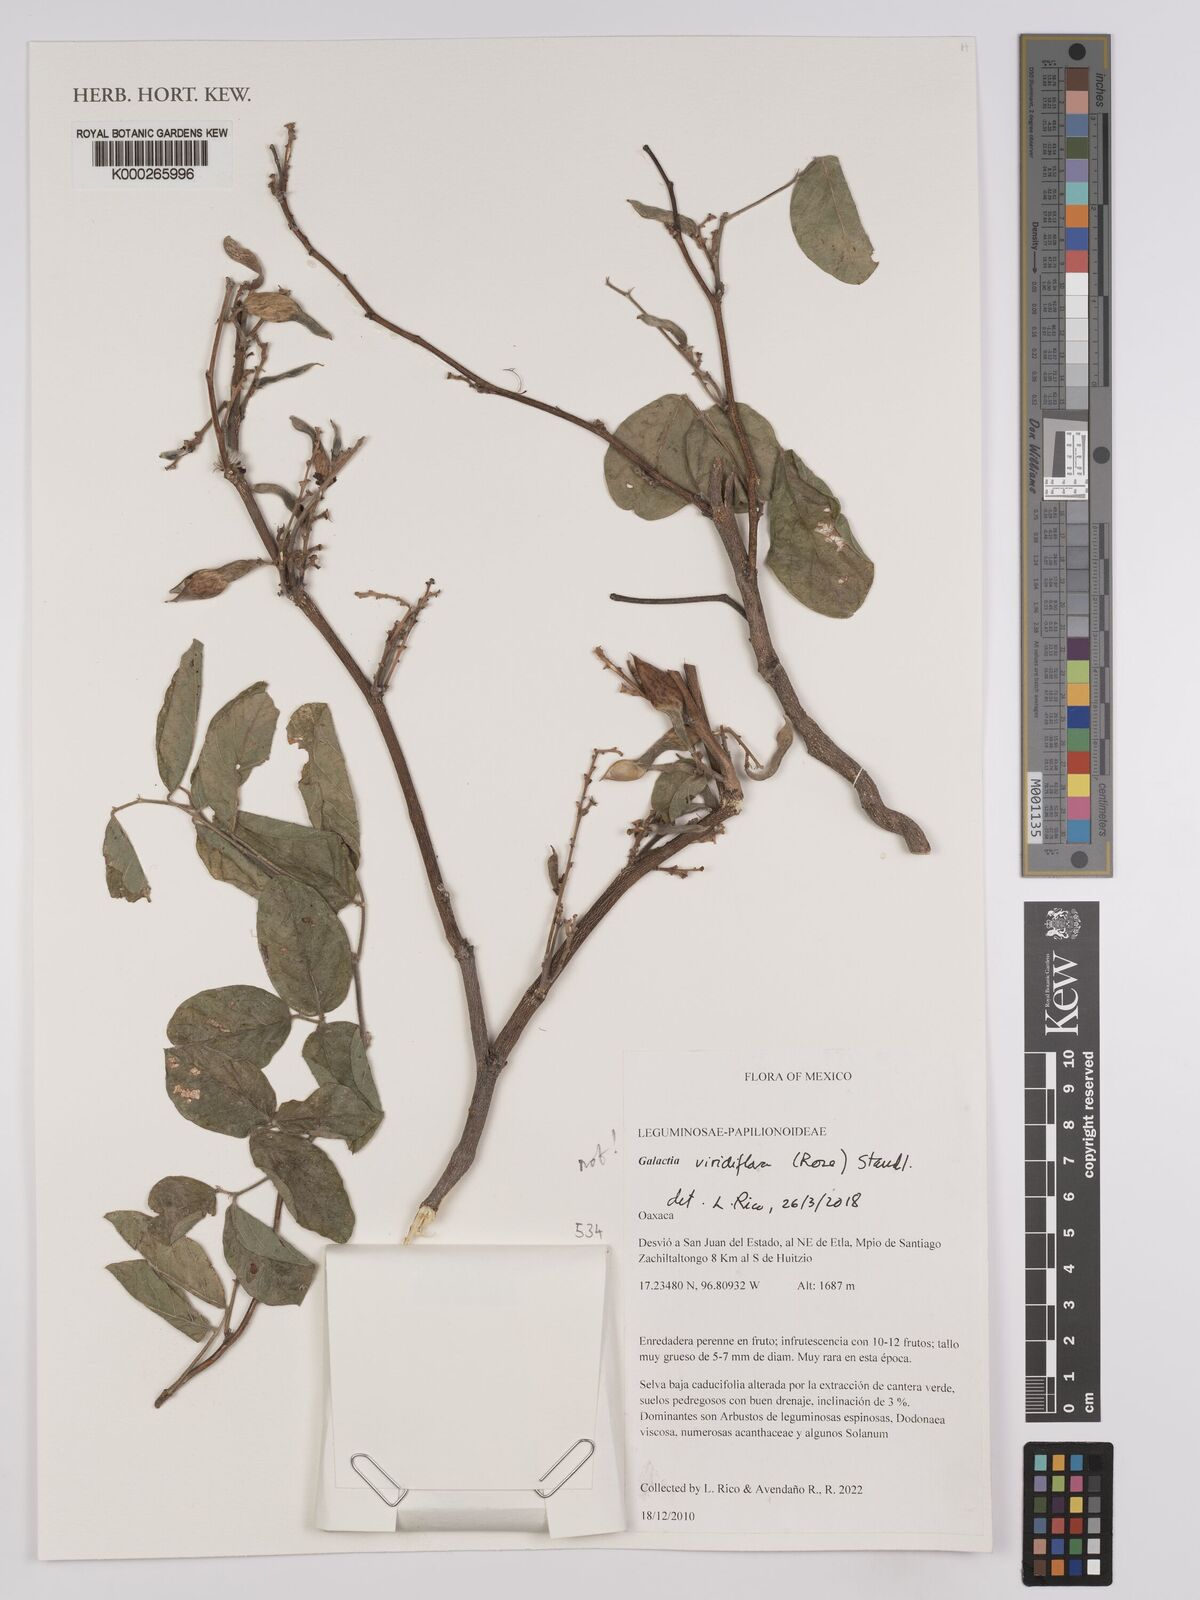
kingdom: Plantae
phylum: Tracheophyta
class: Magnoliopsida
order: Fabales
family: Fabaceae
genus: Lackeya
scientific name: Lackeya viridiflora
